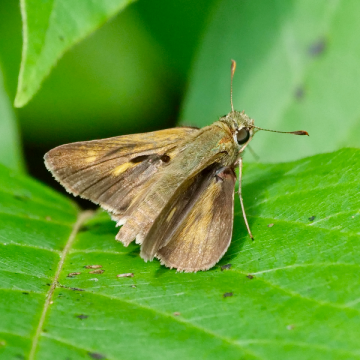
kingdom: Animalia
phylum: Arthropoda
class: Insecta
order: Lepidoptera
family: Hesperiidae
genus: Polites
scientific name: Polites egeremet
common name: Northern Broken-Dash
